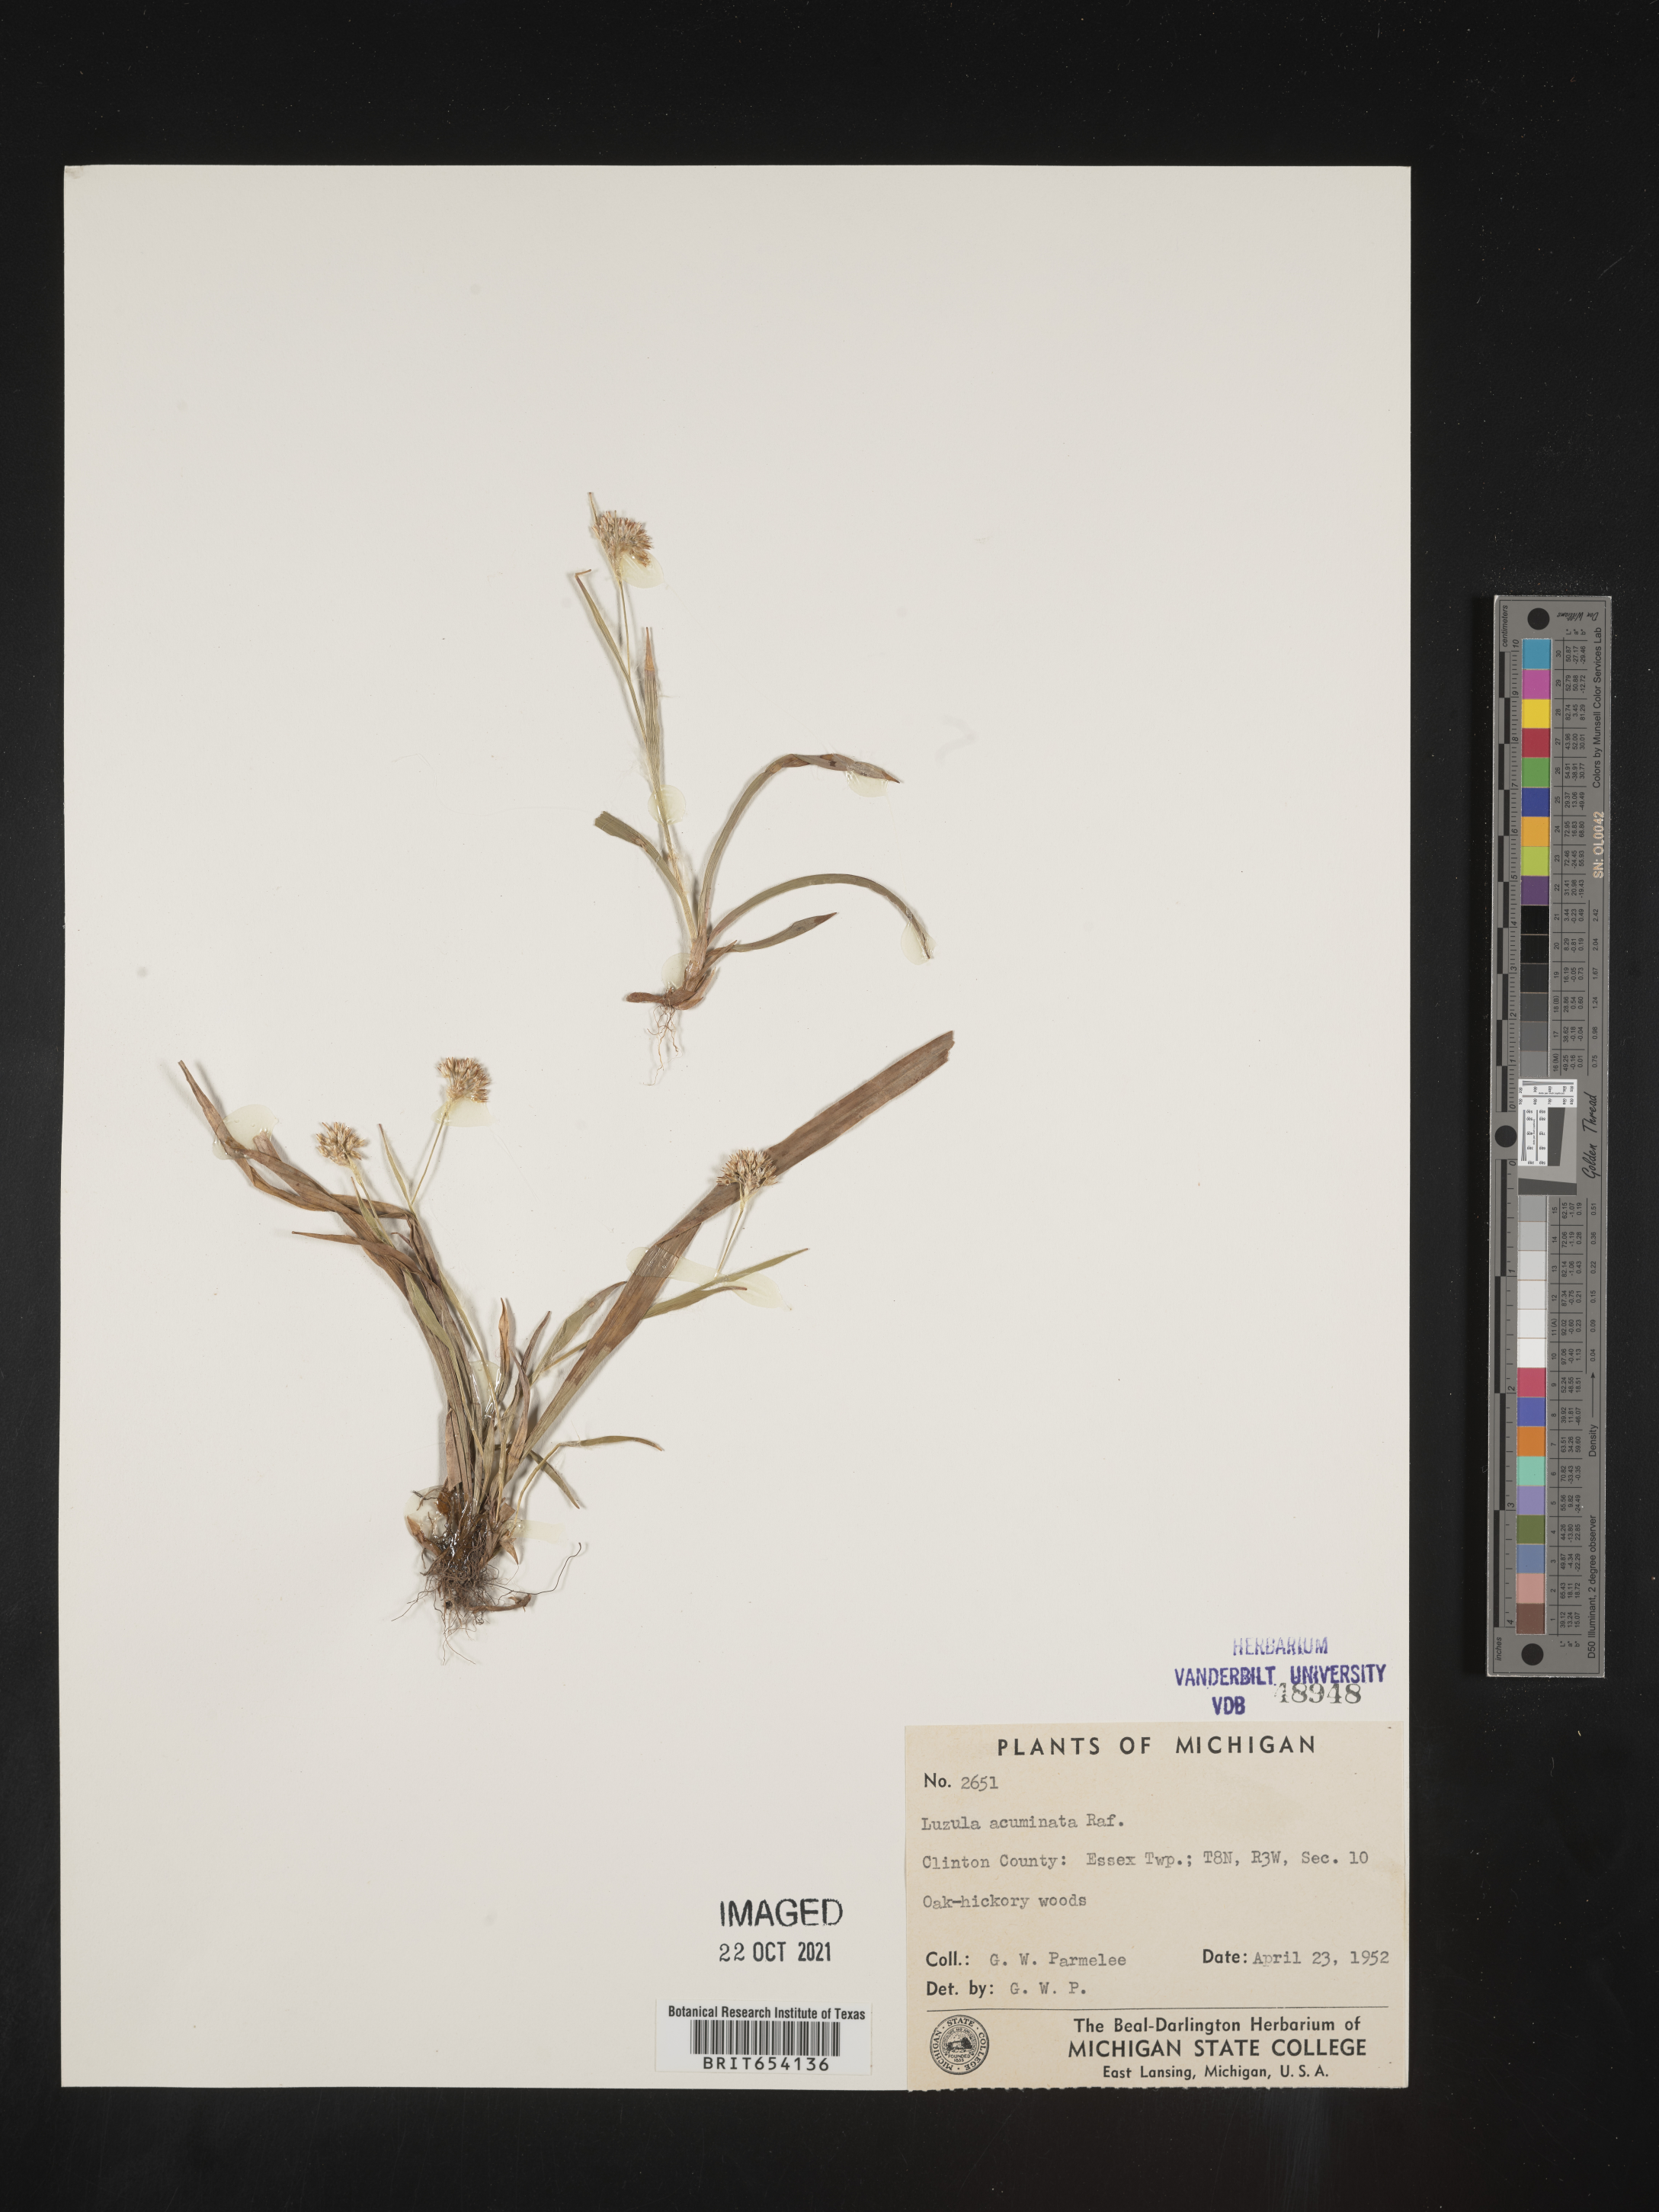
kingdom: Plantae
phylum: Tracheophyta
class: Liliopsida
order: Poales
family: Juncaceae
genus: Luzula
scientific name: Luzula acuminata
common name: Hairy woodrush
